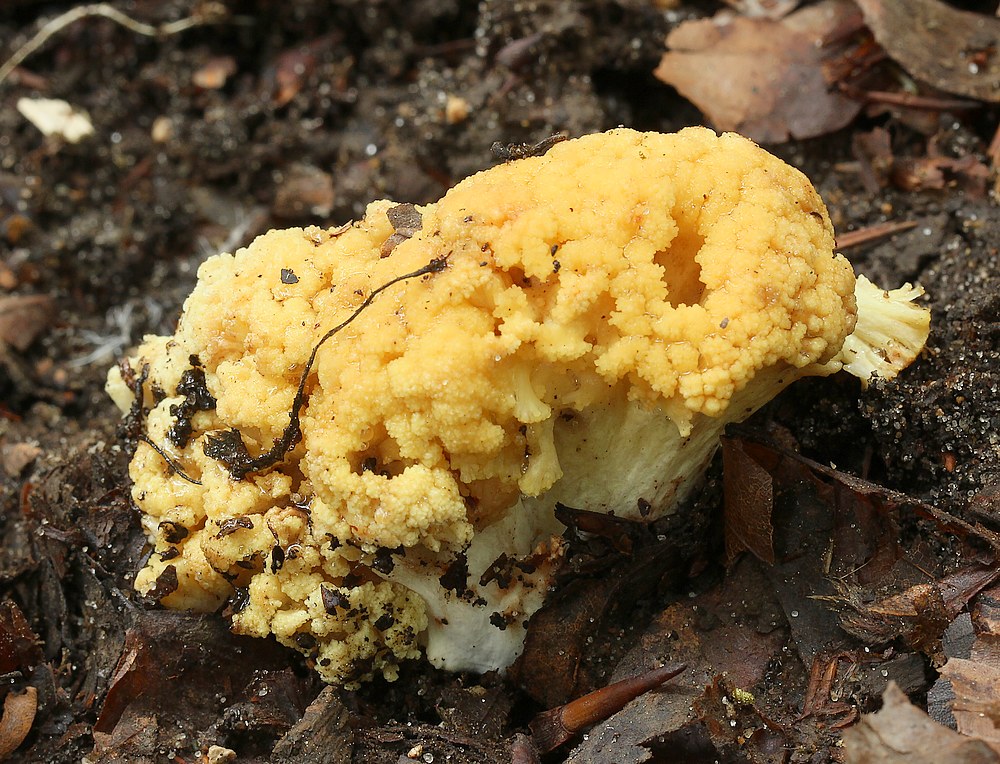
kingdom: Fungi
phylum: Basidiomycota
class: Agaricomycetes
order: Gomphales
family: Gomphaceae
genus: Ramaria
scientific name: Ramaria sanguinea
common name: blodplettet koralsvamp
